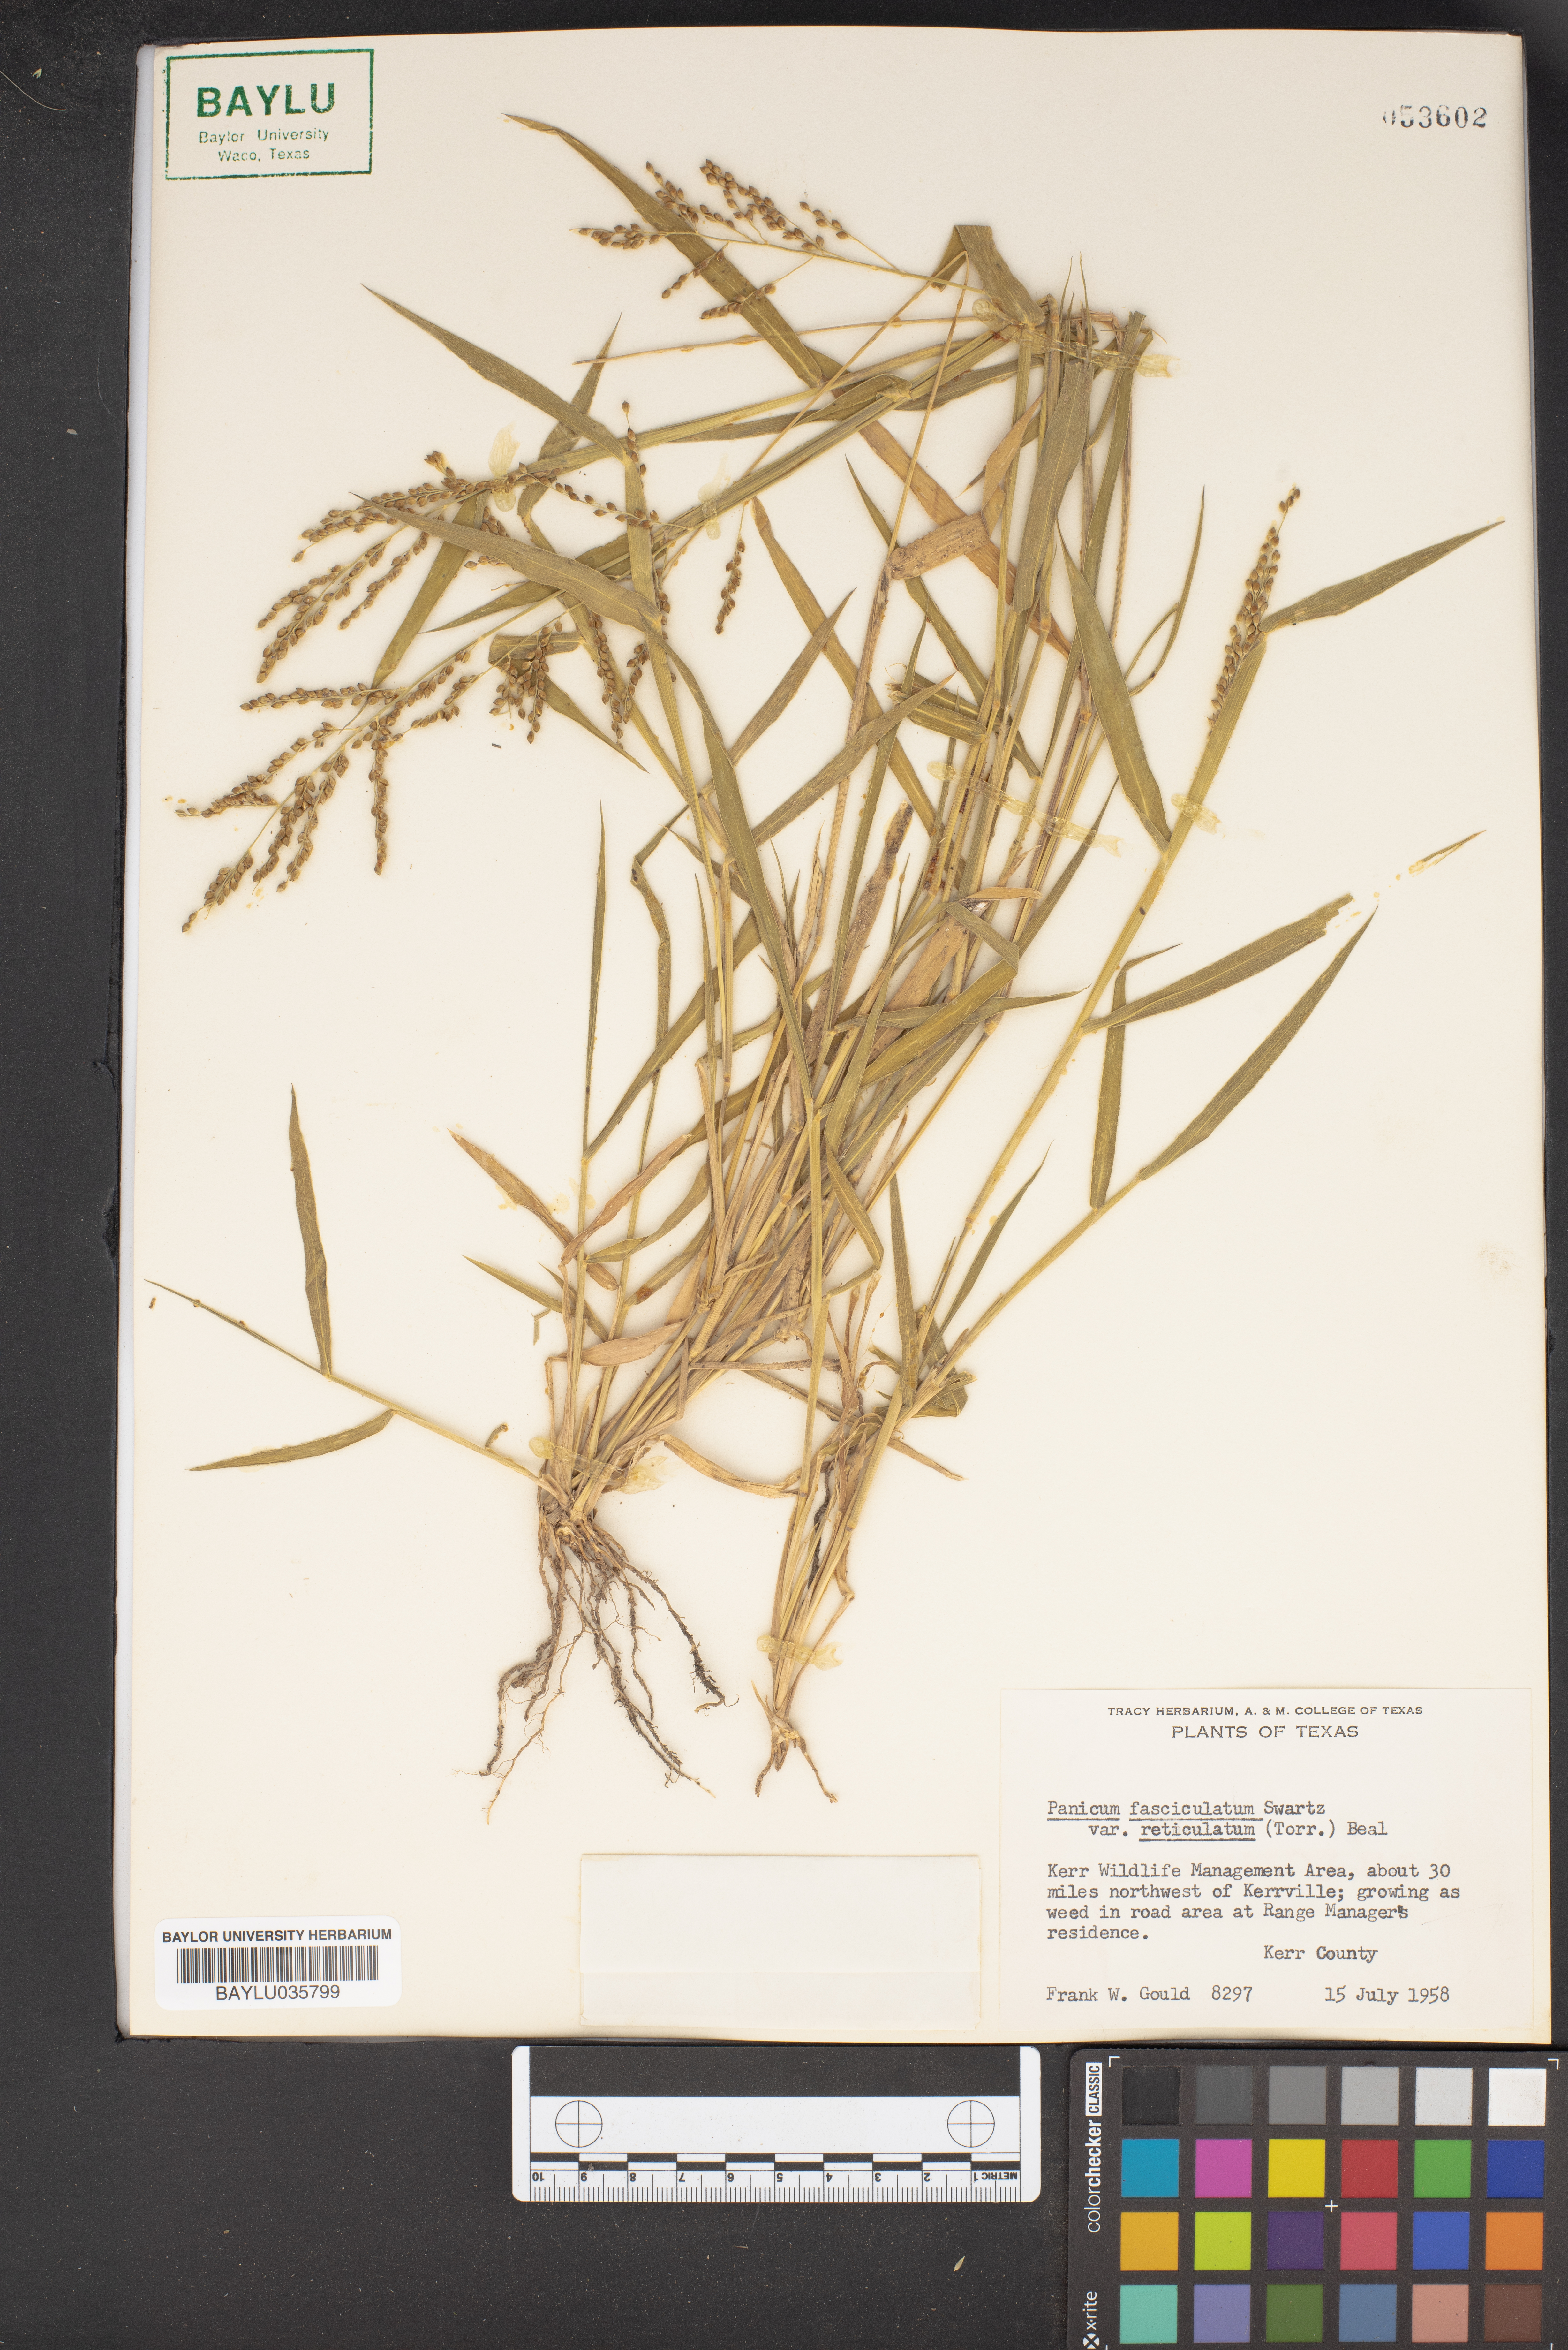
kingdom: Plantae
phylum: Tracheophyta
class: Liliopsida
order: Poales
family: Poaceae
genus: Urochloa
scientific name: Urochloa fusca
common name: Browntop signal grass
